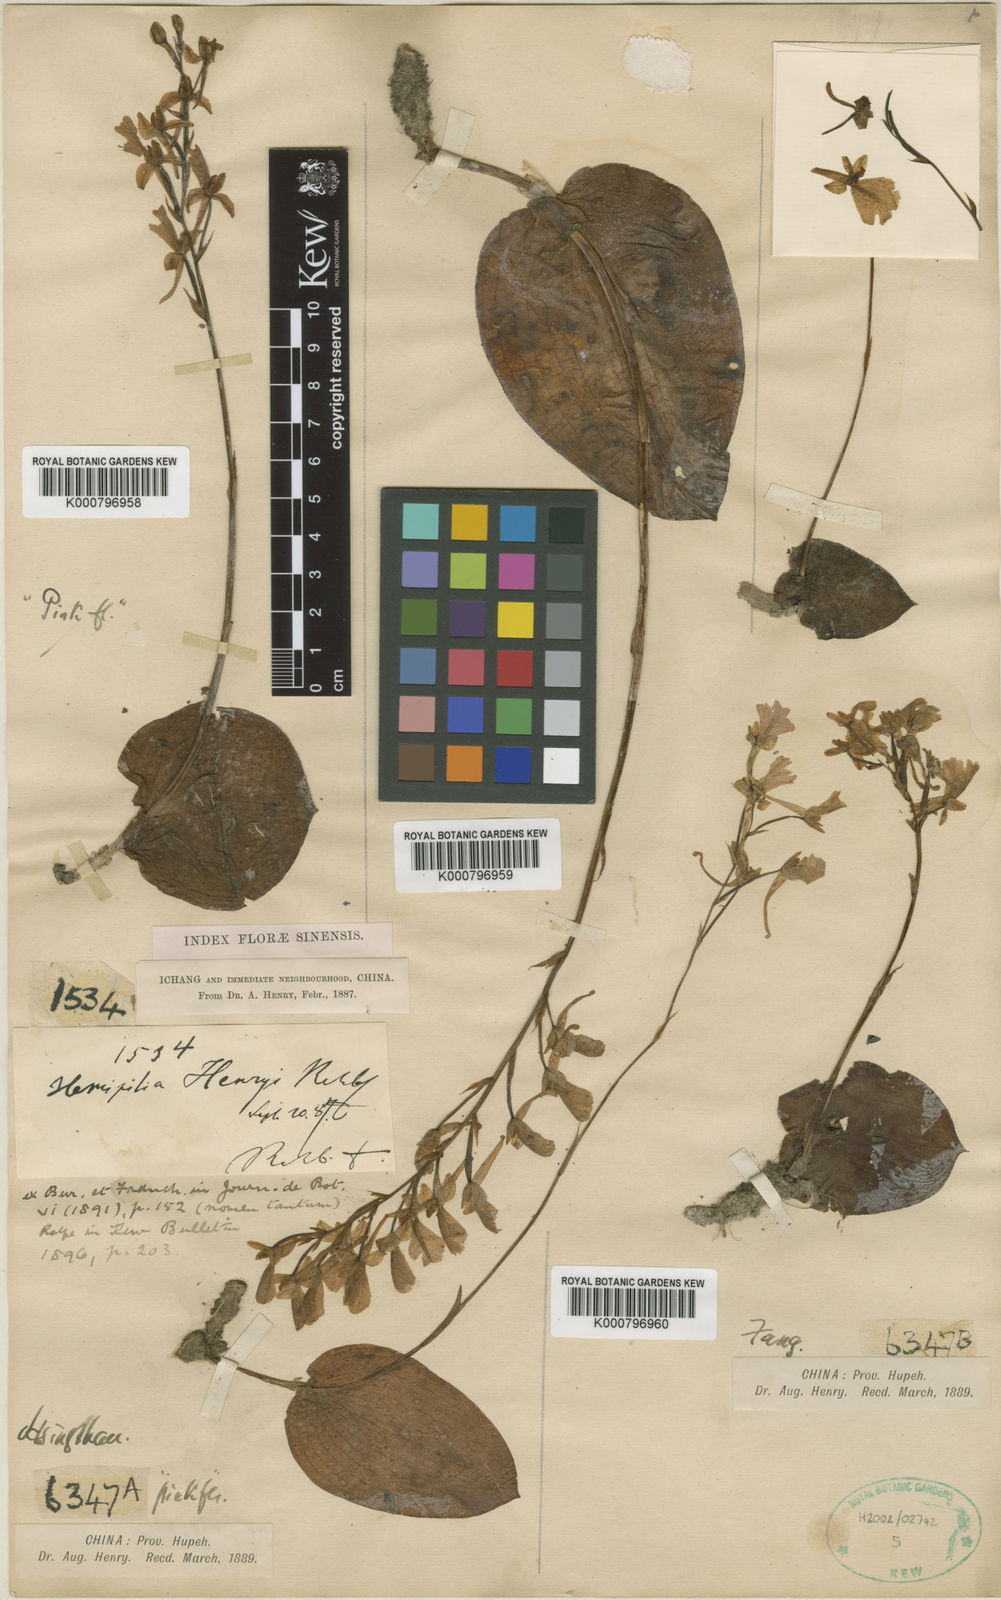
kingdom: Plantae
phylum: Tracheophyta
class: Liliopsida
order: Asparagales
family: Orchidaceae
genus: Hemipilia
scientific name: Hemipilia
